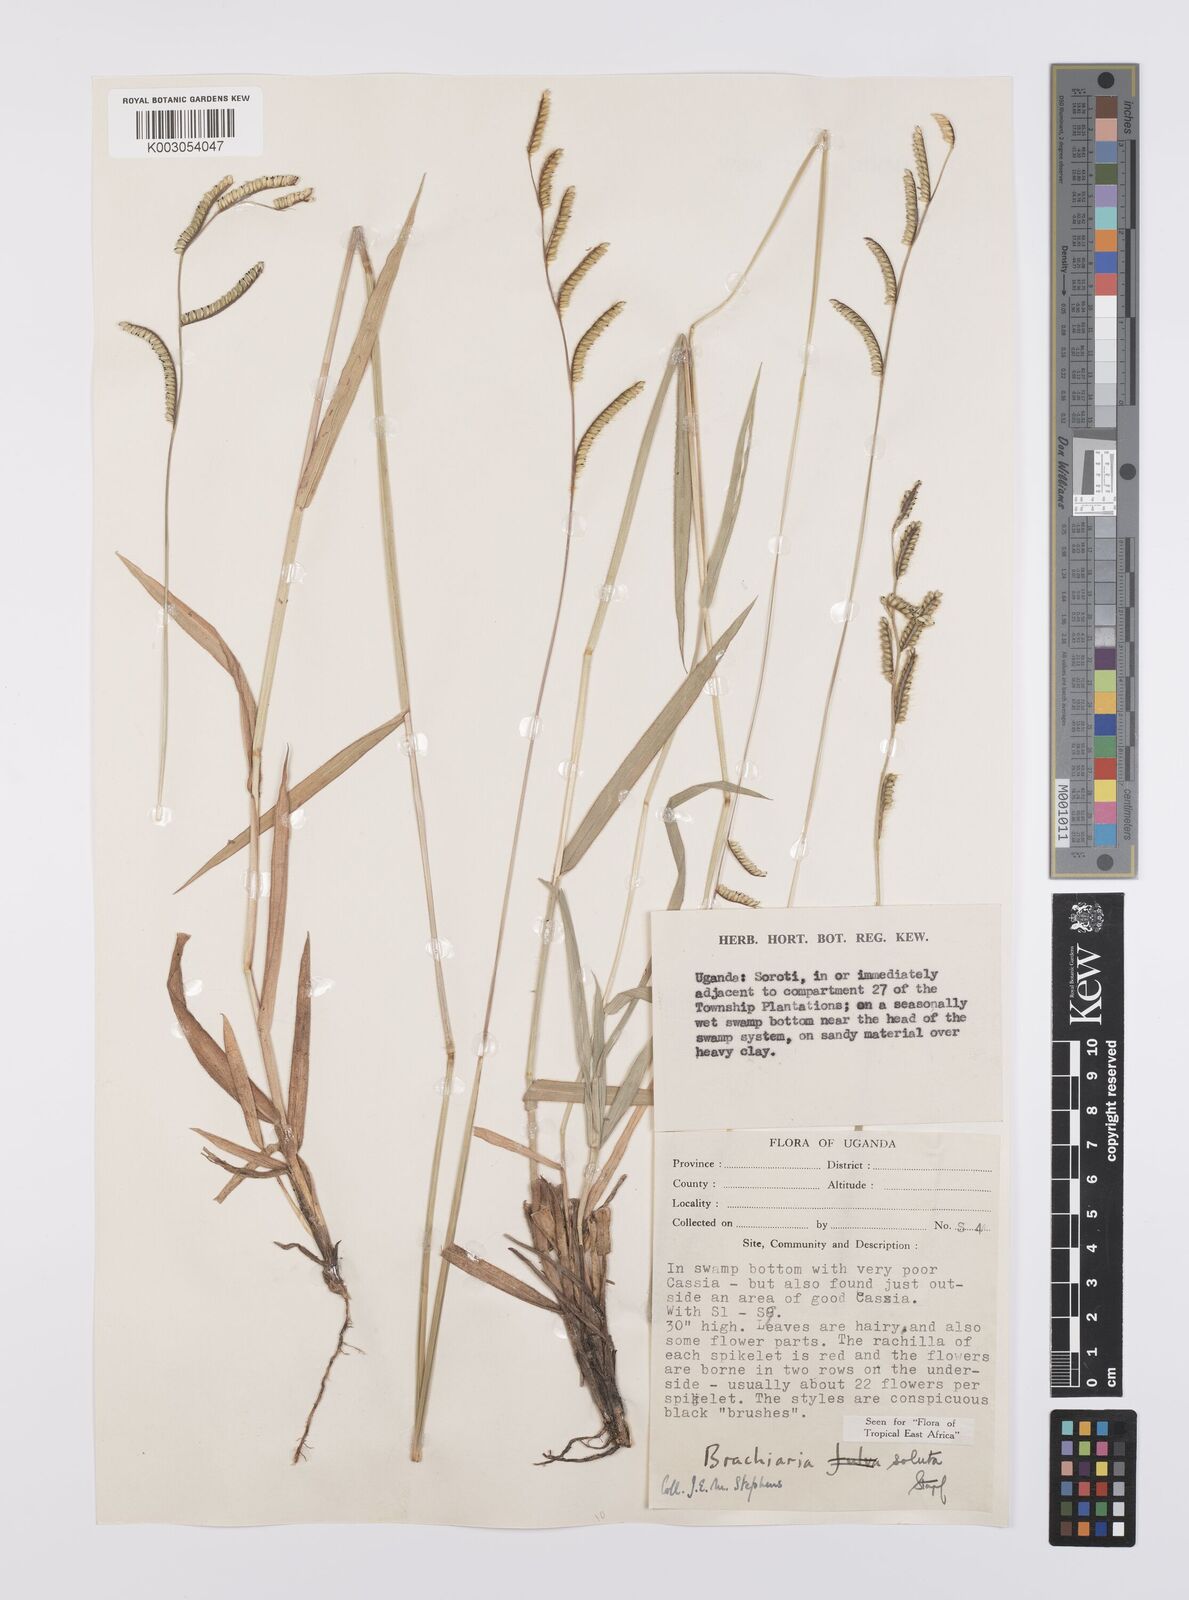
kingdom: Plantae
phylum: Tracheophyta
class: Liliopsida
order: Poales
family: Poaceae
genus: Urochloa
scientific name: Urochloa jubata
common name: Buffalograss
